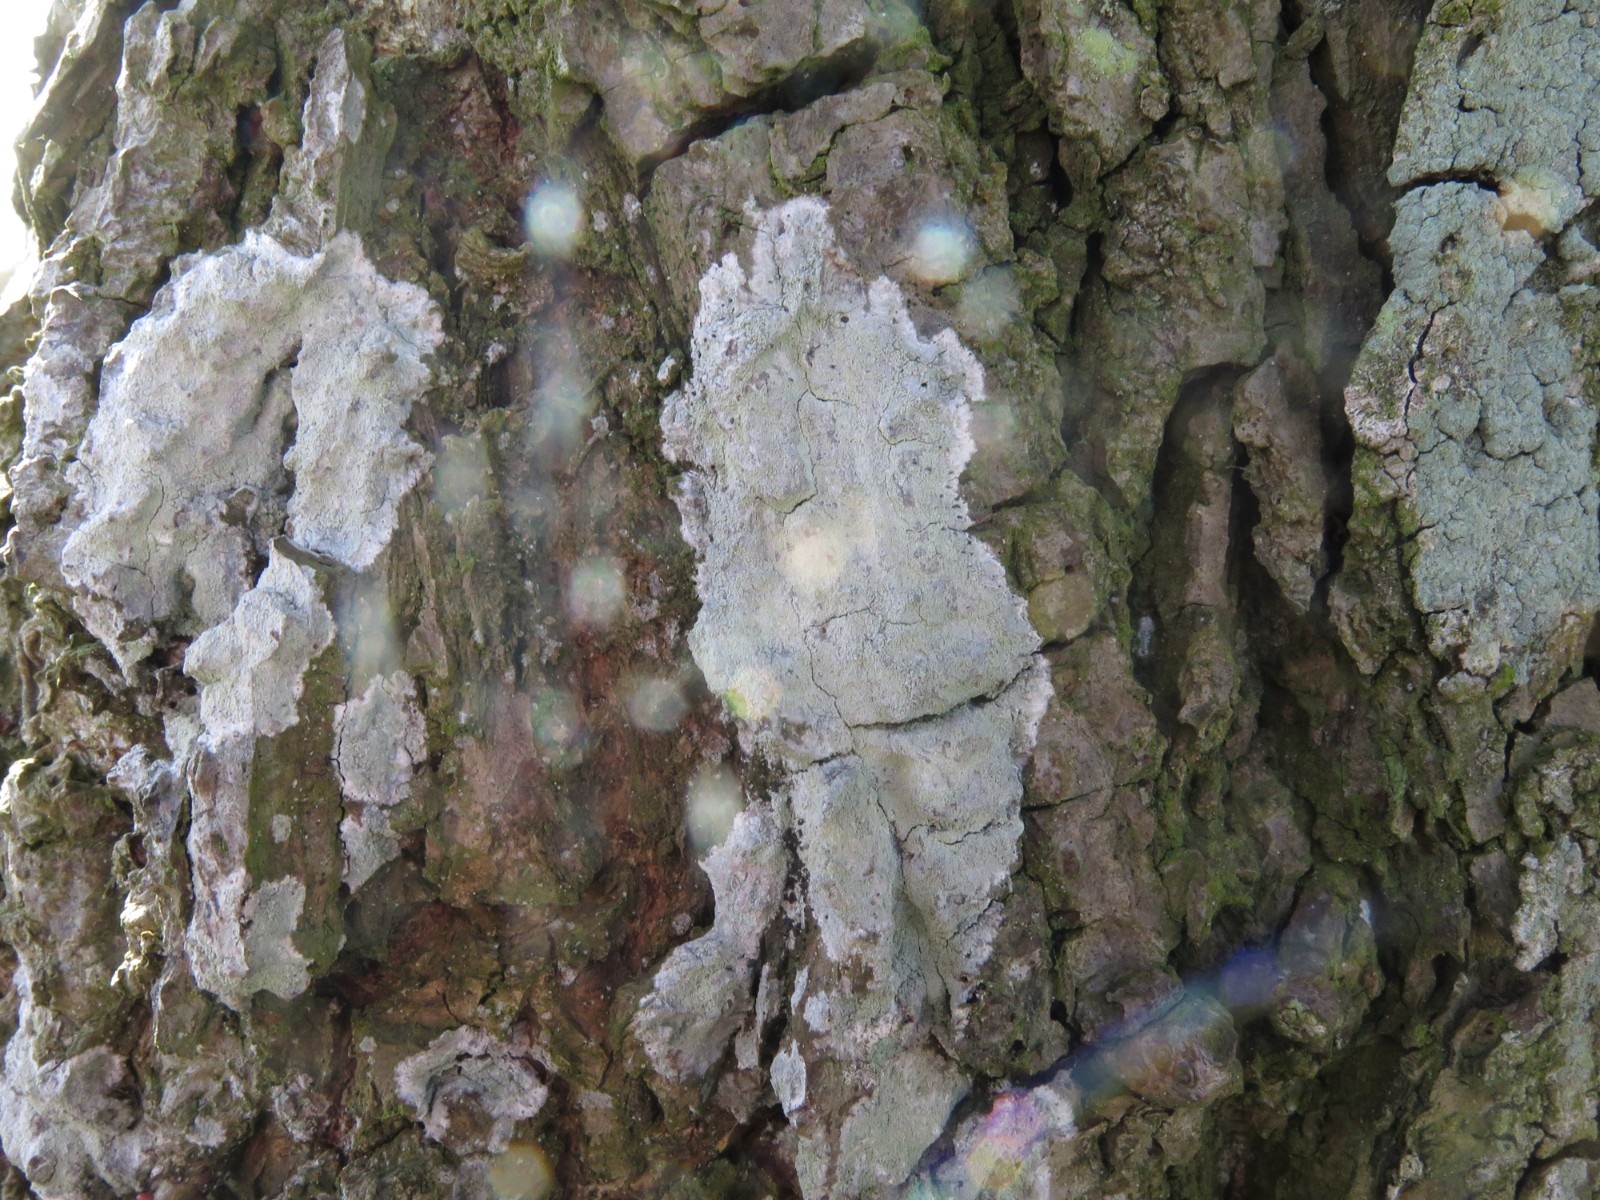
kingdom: Fungi
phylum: Ascomycota
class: Lecanoromycetes
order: Ostropales
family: Phlyctidaceae
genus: Phlyctis
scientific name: Phlyctis argena
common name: almindelig sølvlav
